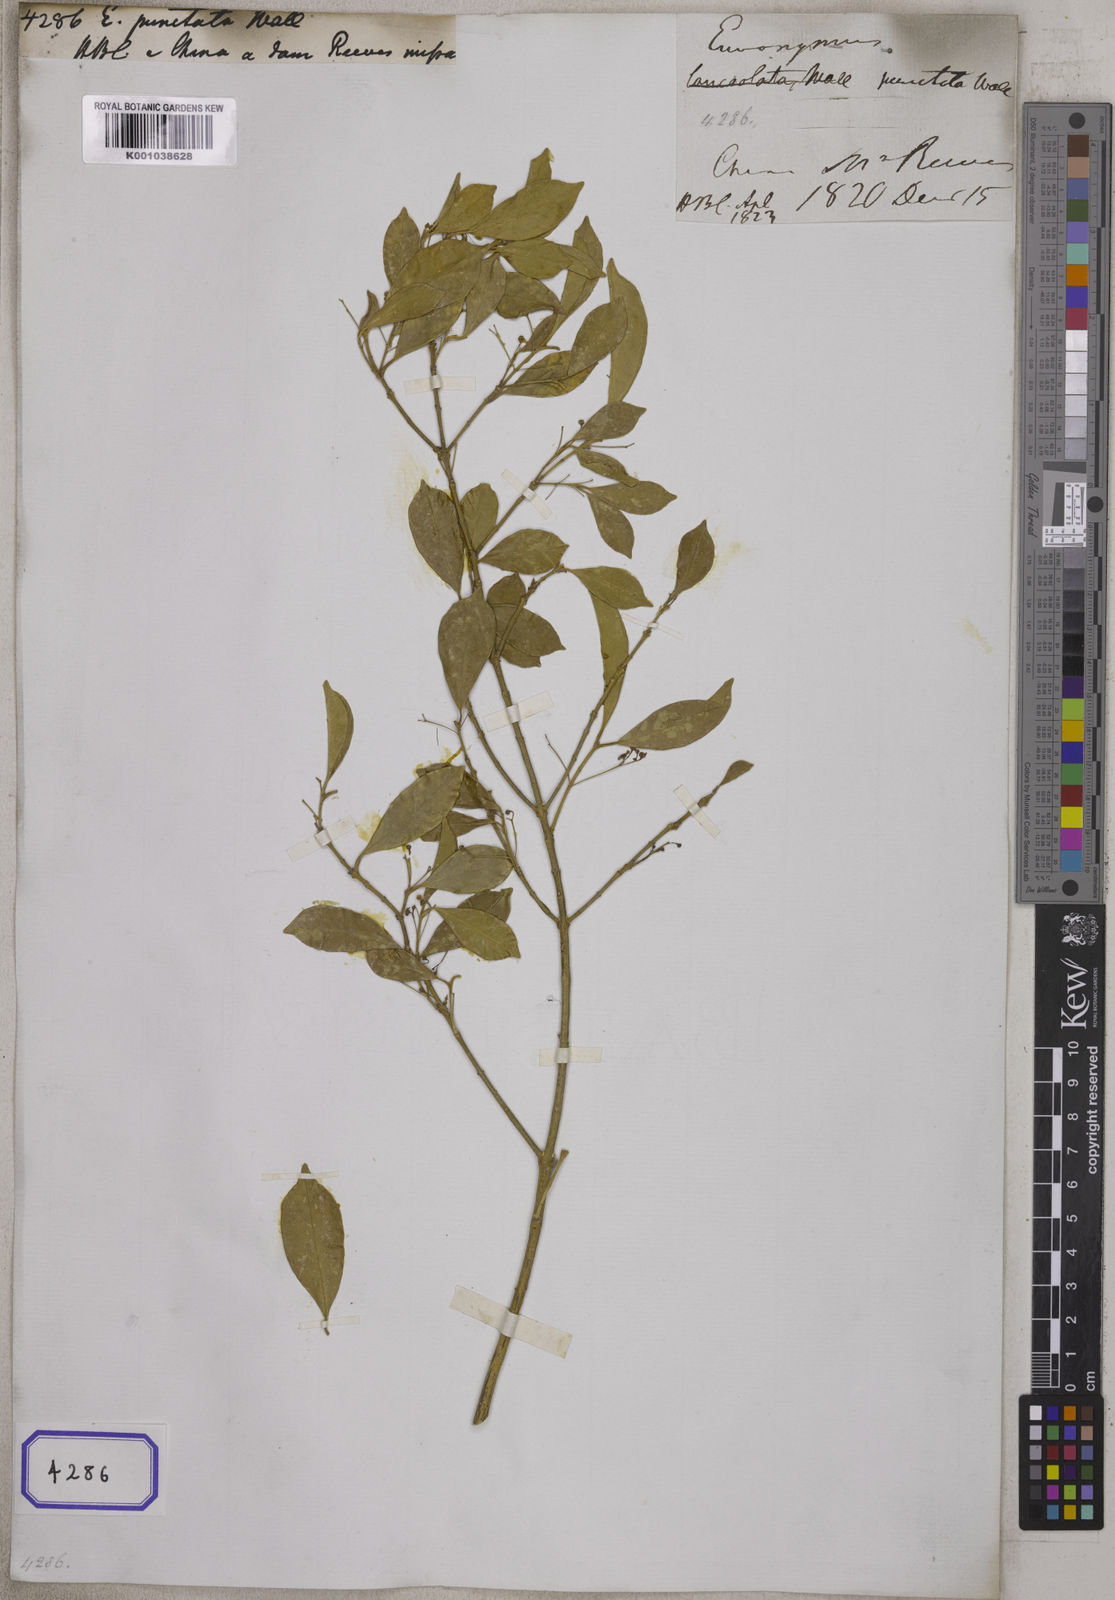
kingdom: Plantae
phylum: Tracheophyta
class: Magnoliopsida
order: Celastrales
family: Celastraceae
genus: Euonymus
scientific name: Euonymus nitidus
